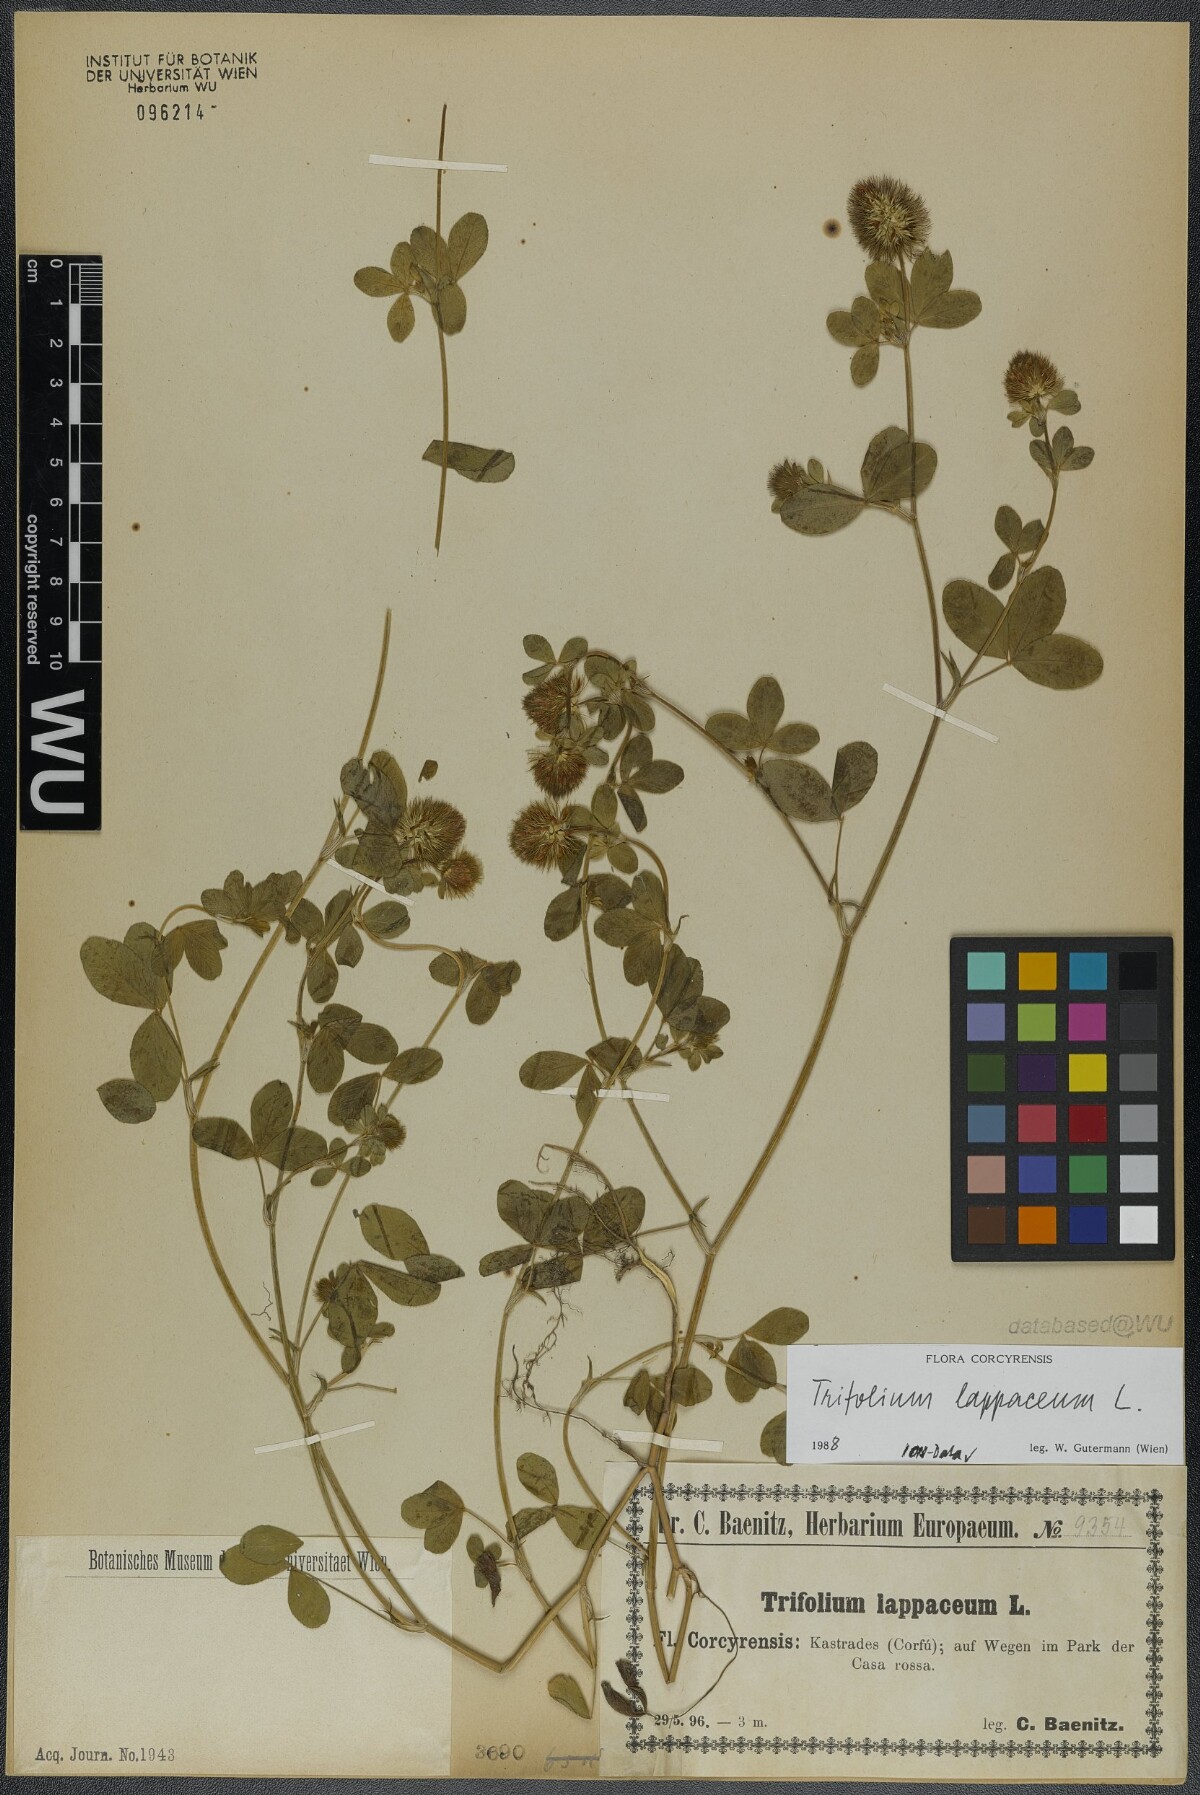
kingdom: Plantae
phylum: Tracheophyta
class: Magnoliopsida
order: Fabales
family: Fabaceae
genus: Trifolium
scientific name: Trifolium lappaceum
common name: Bur clover
